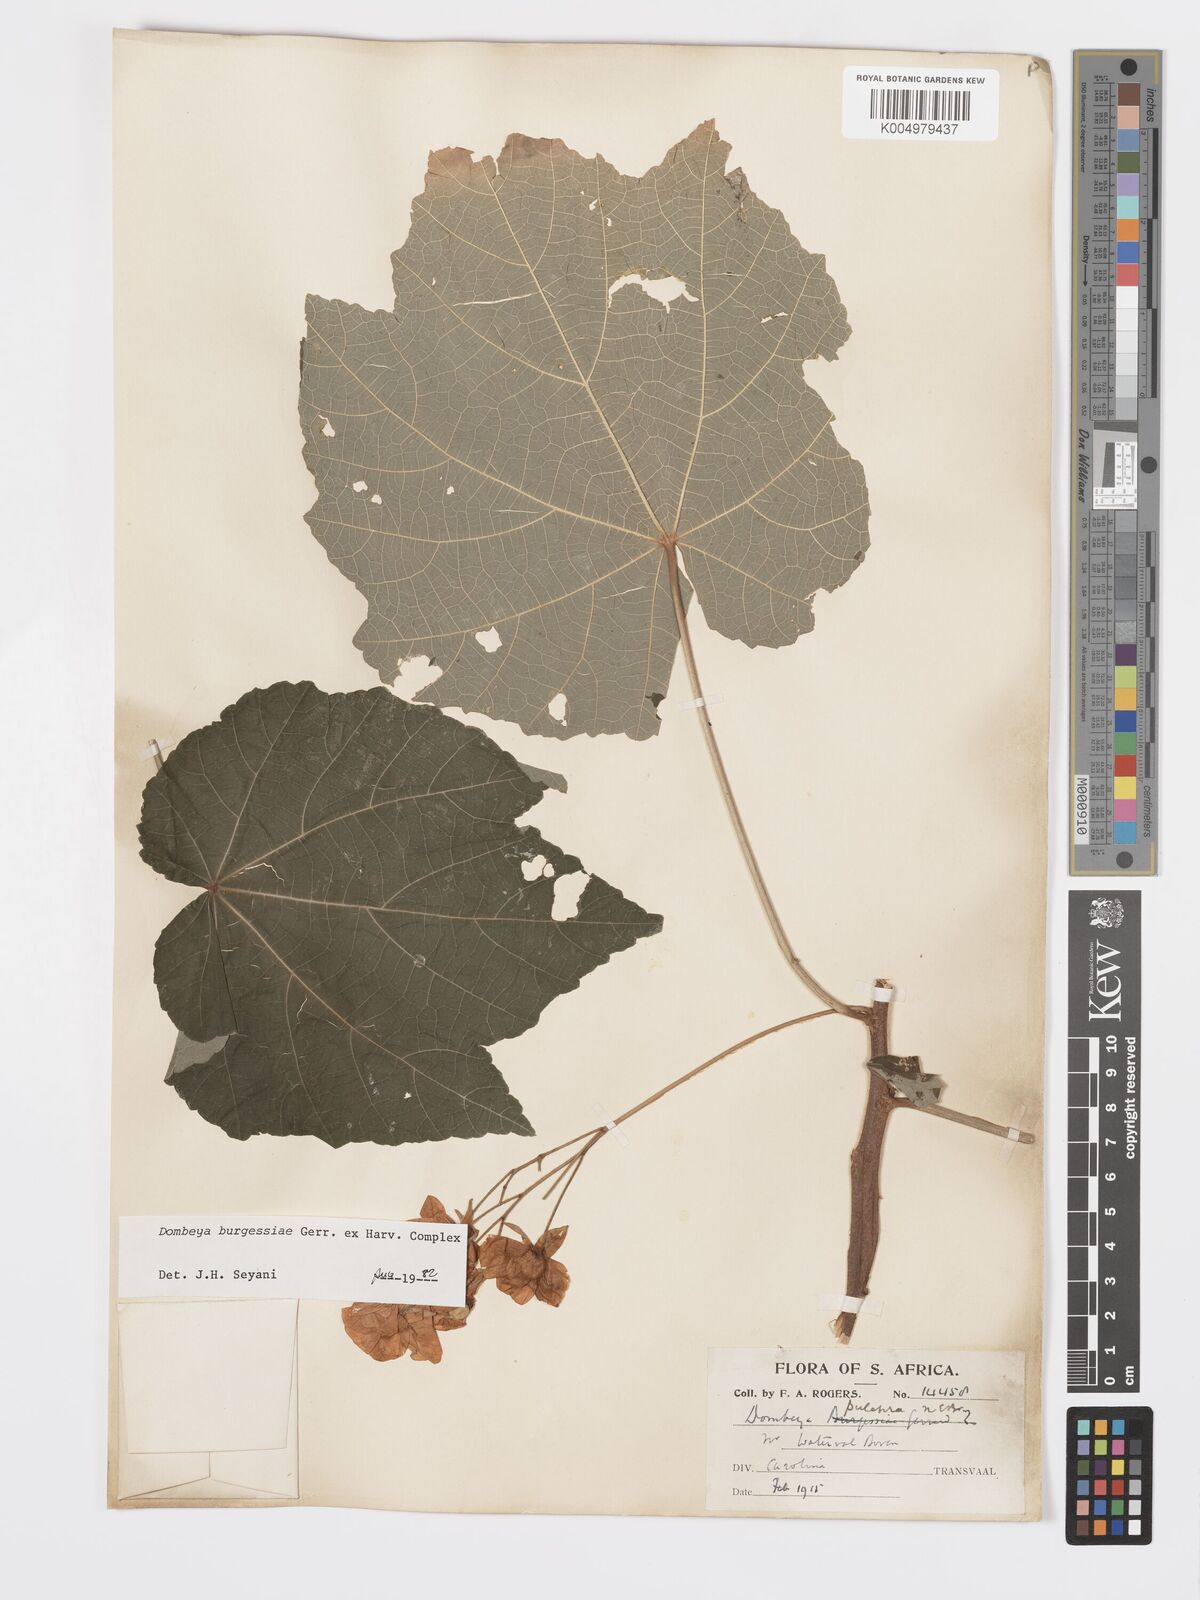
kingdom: Plantae
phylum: Tracheophyta
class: Magnoliopsida
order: Malvales
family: Malvaceae
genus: Dombeya
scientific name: Dombeya burgessiae
